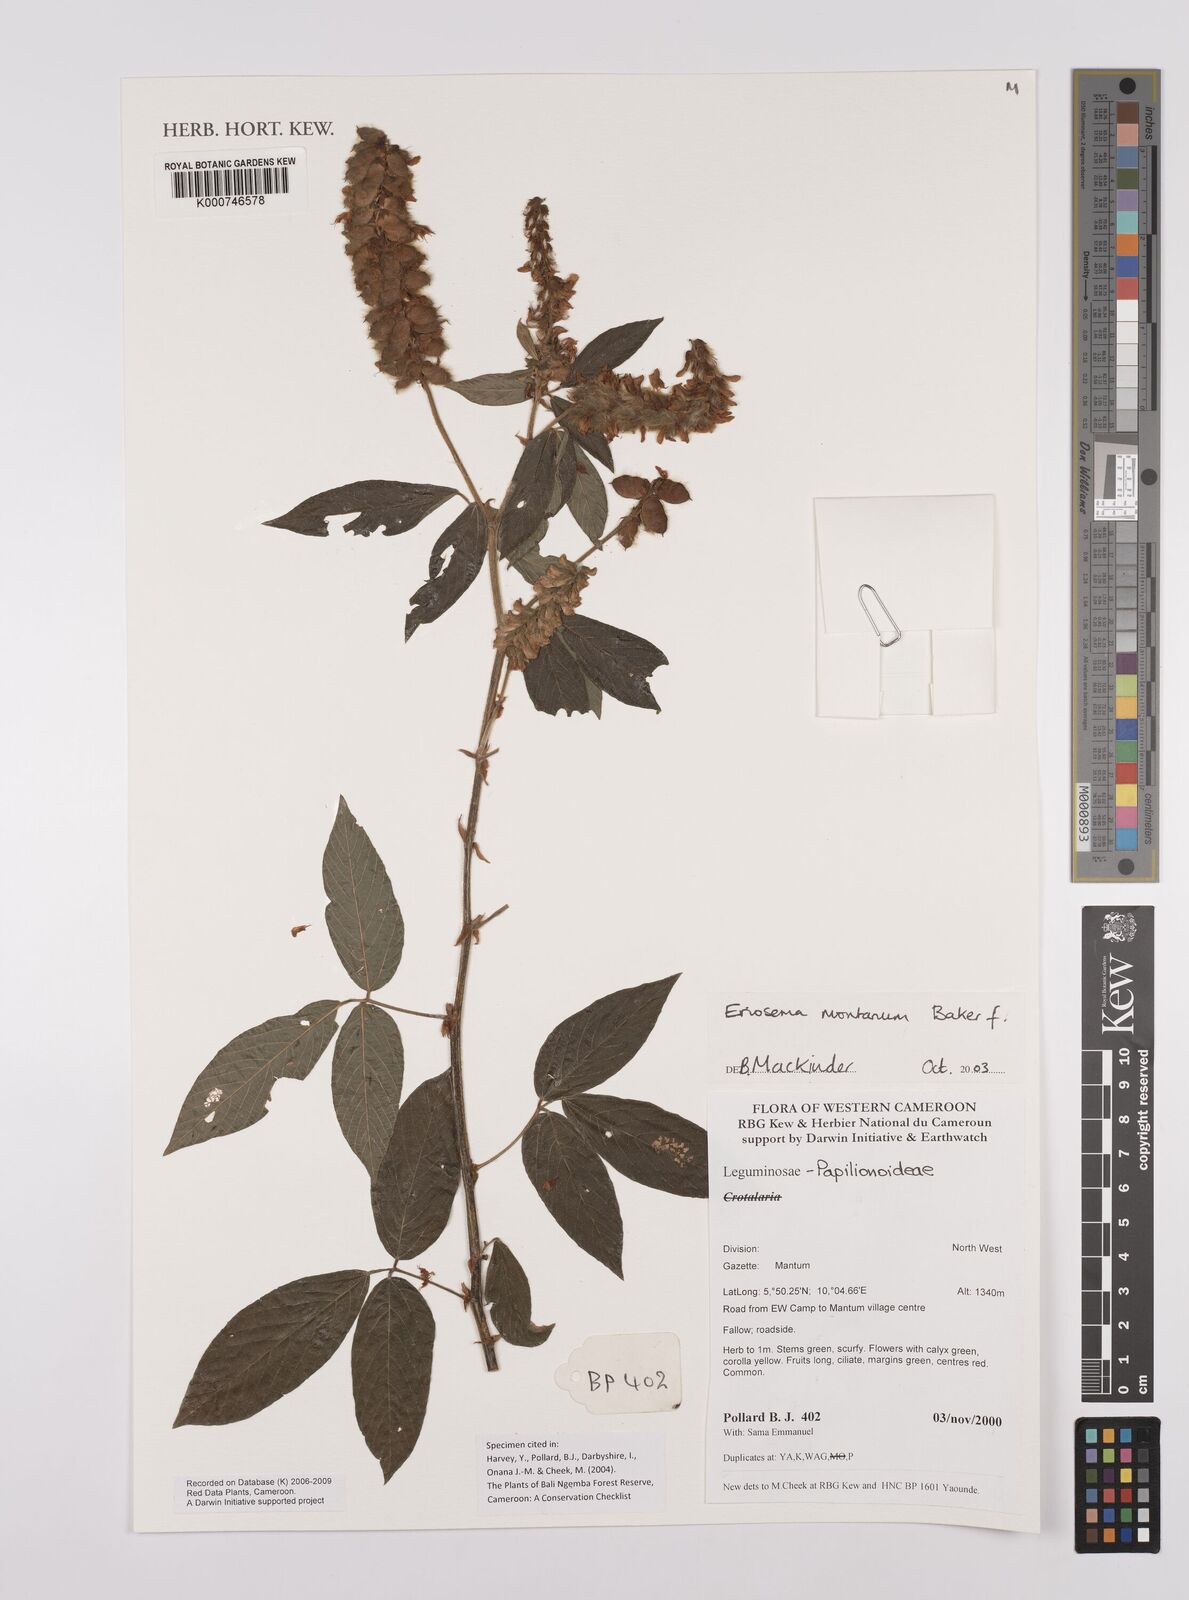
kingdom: Plantae
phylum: Tracheophyta
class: Magnoliopsida
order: Fabales
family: Fabaceae
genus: Eriosema
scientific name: Eriosema montanum
